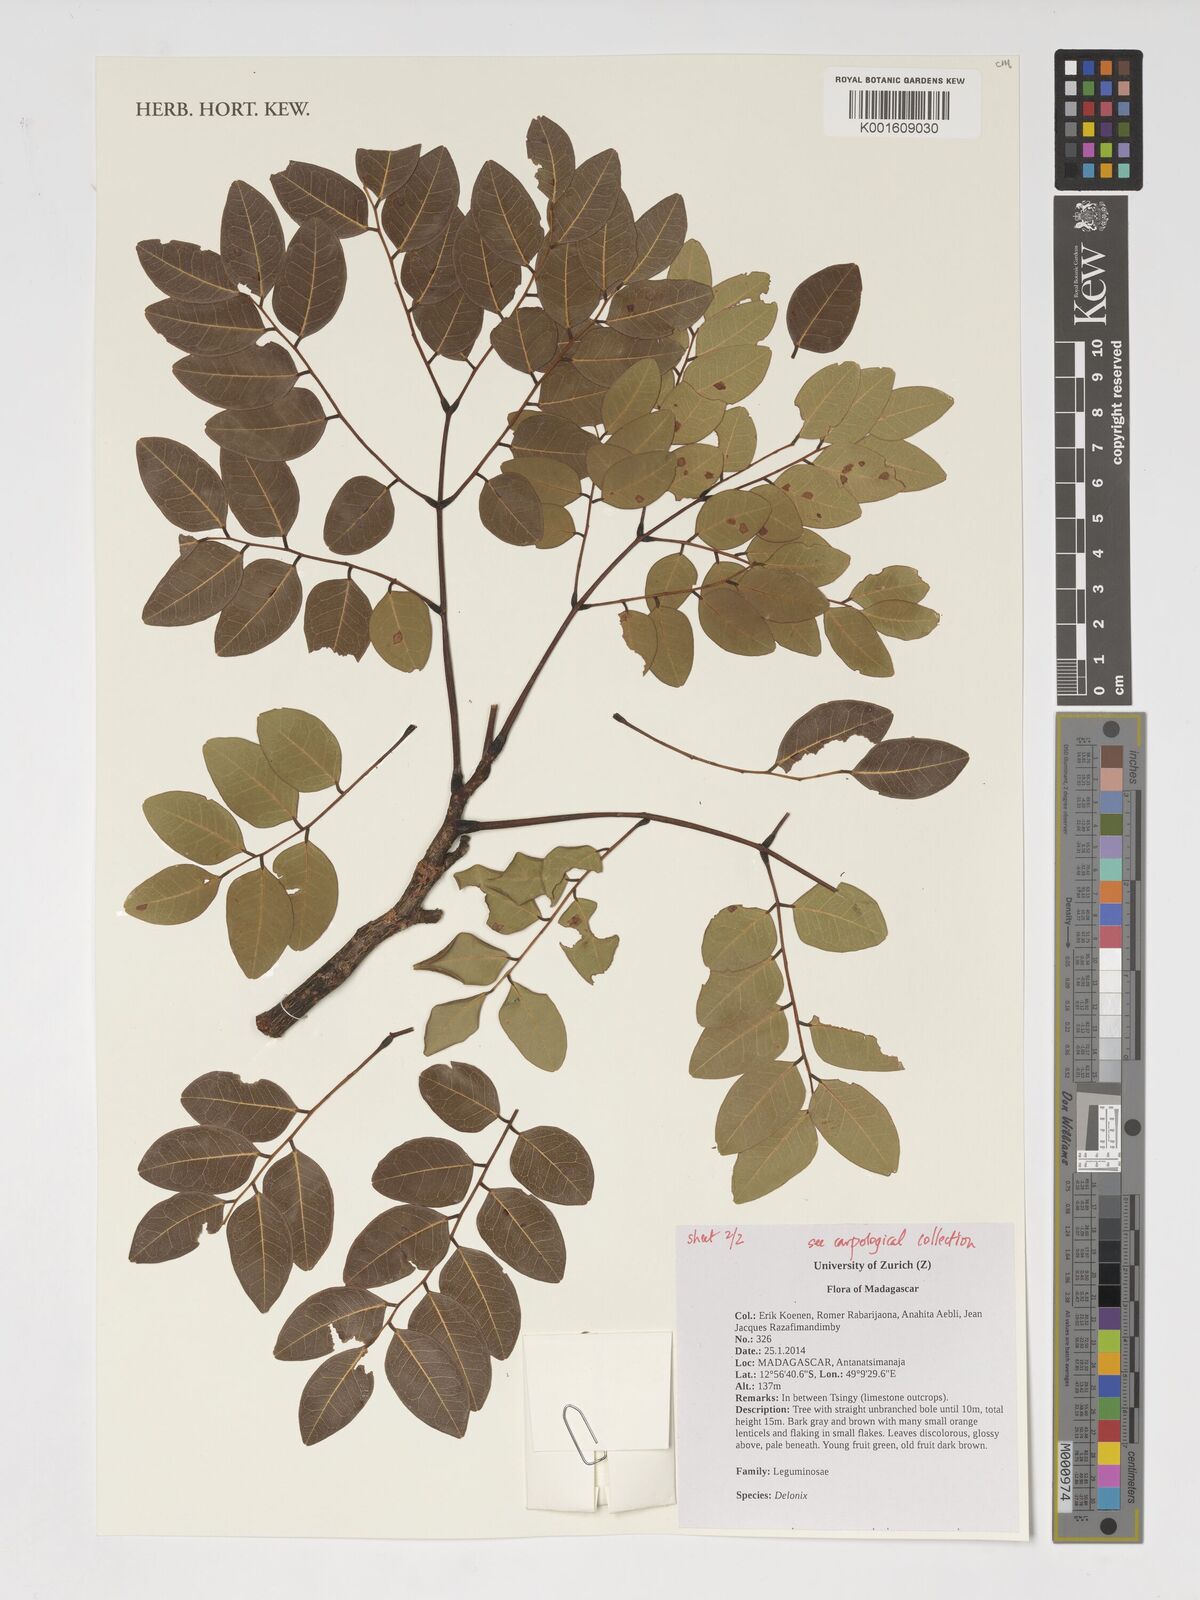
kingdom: Plantae
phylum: Tracheophyta
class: Magnoliopsida
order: Fabales
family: Fabaceae
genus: Delonix
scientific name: Delonix
